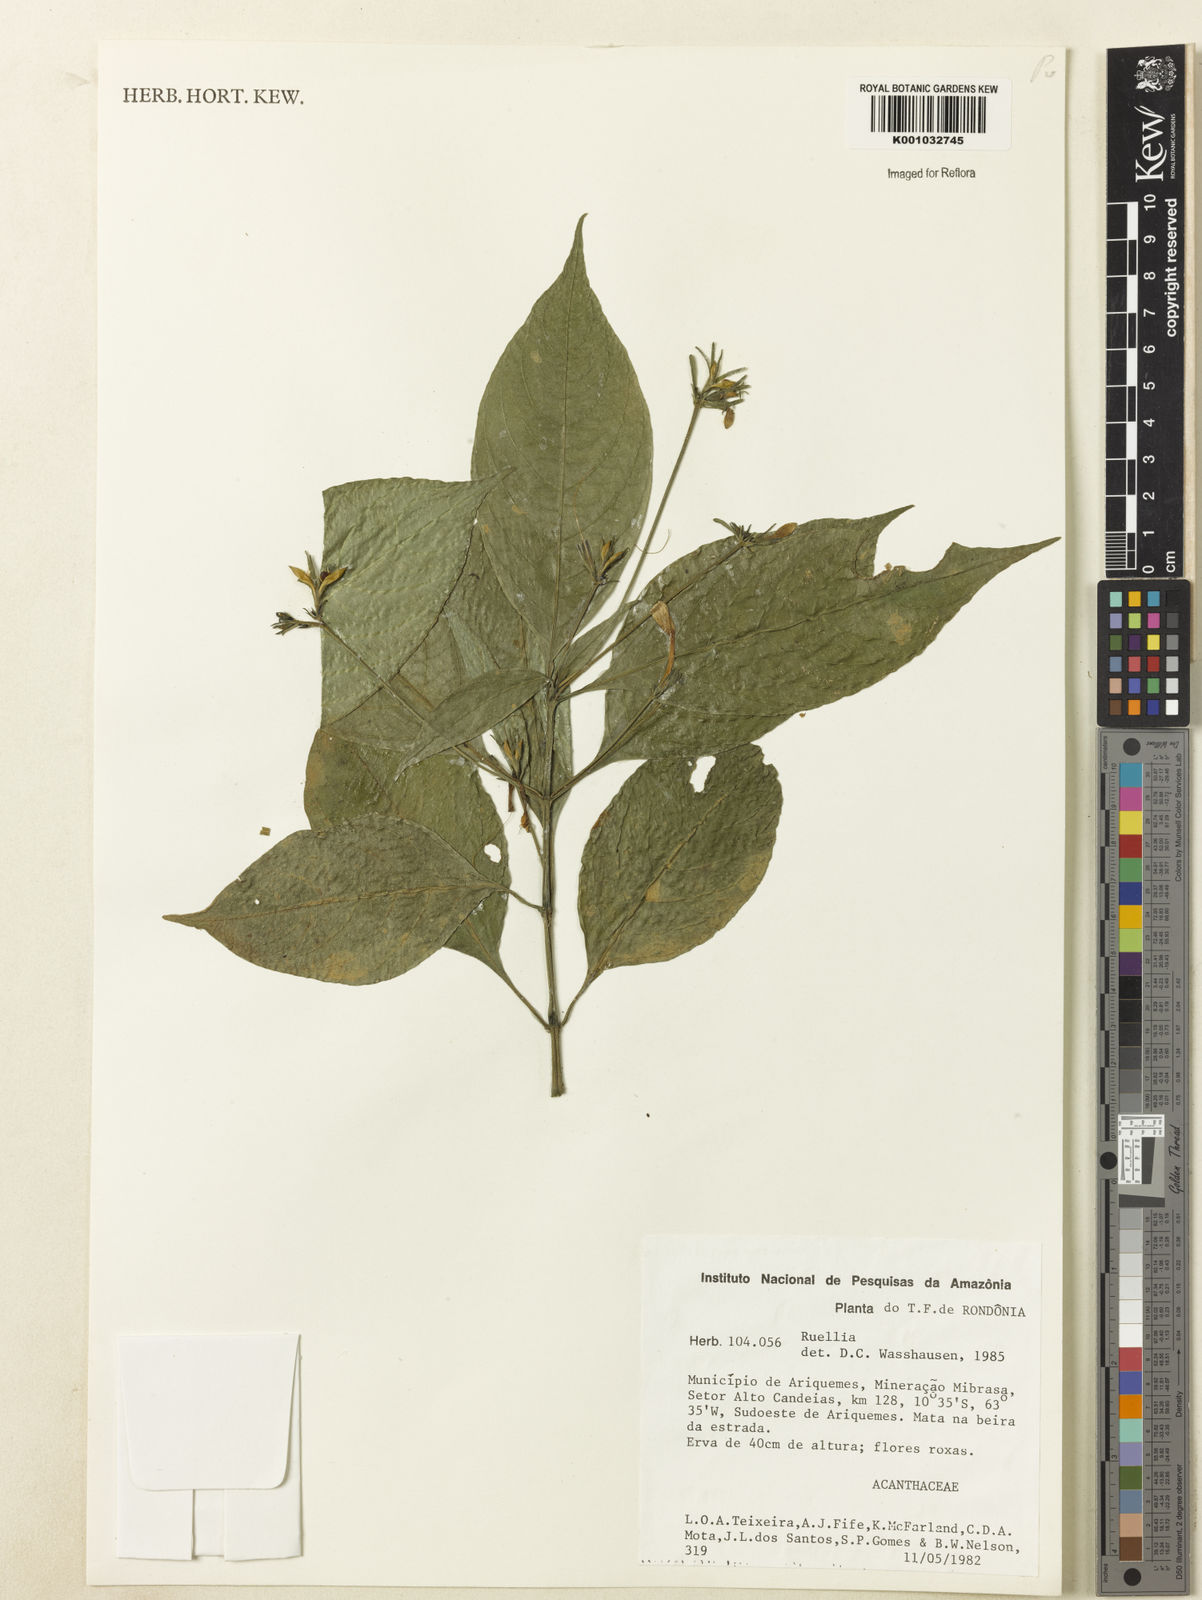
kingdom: Plantae
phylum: Tracheophyta
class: Magnoliopsida
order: Lamiales
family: Acanthaceae
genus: Ruellia
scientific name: Ruellia
